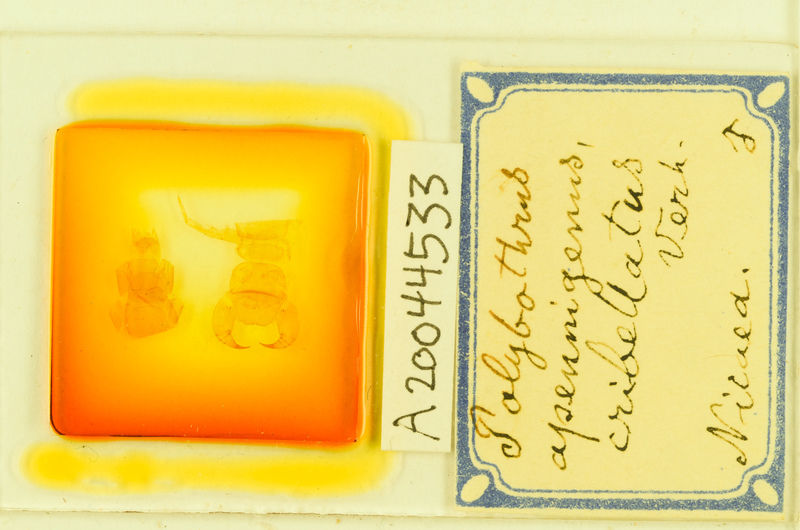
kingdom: Animalia
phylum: Arthropoda
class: Chilopoda
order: Lithobiomorpha
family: Lithobiidae
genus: Polybothrus
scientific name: Polybothrus
